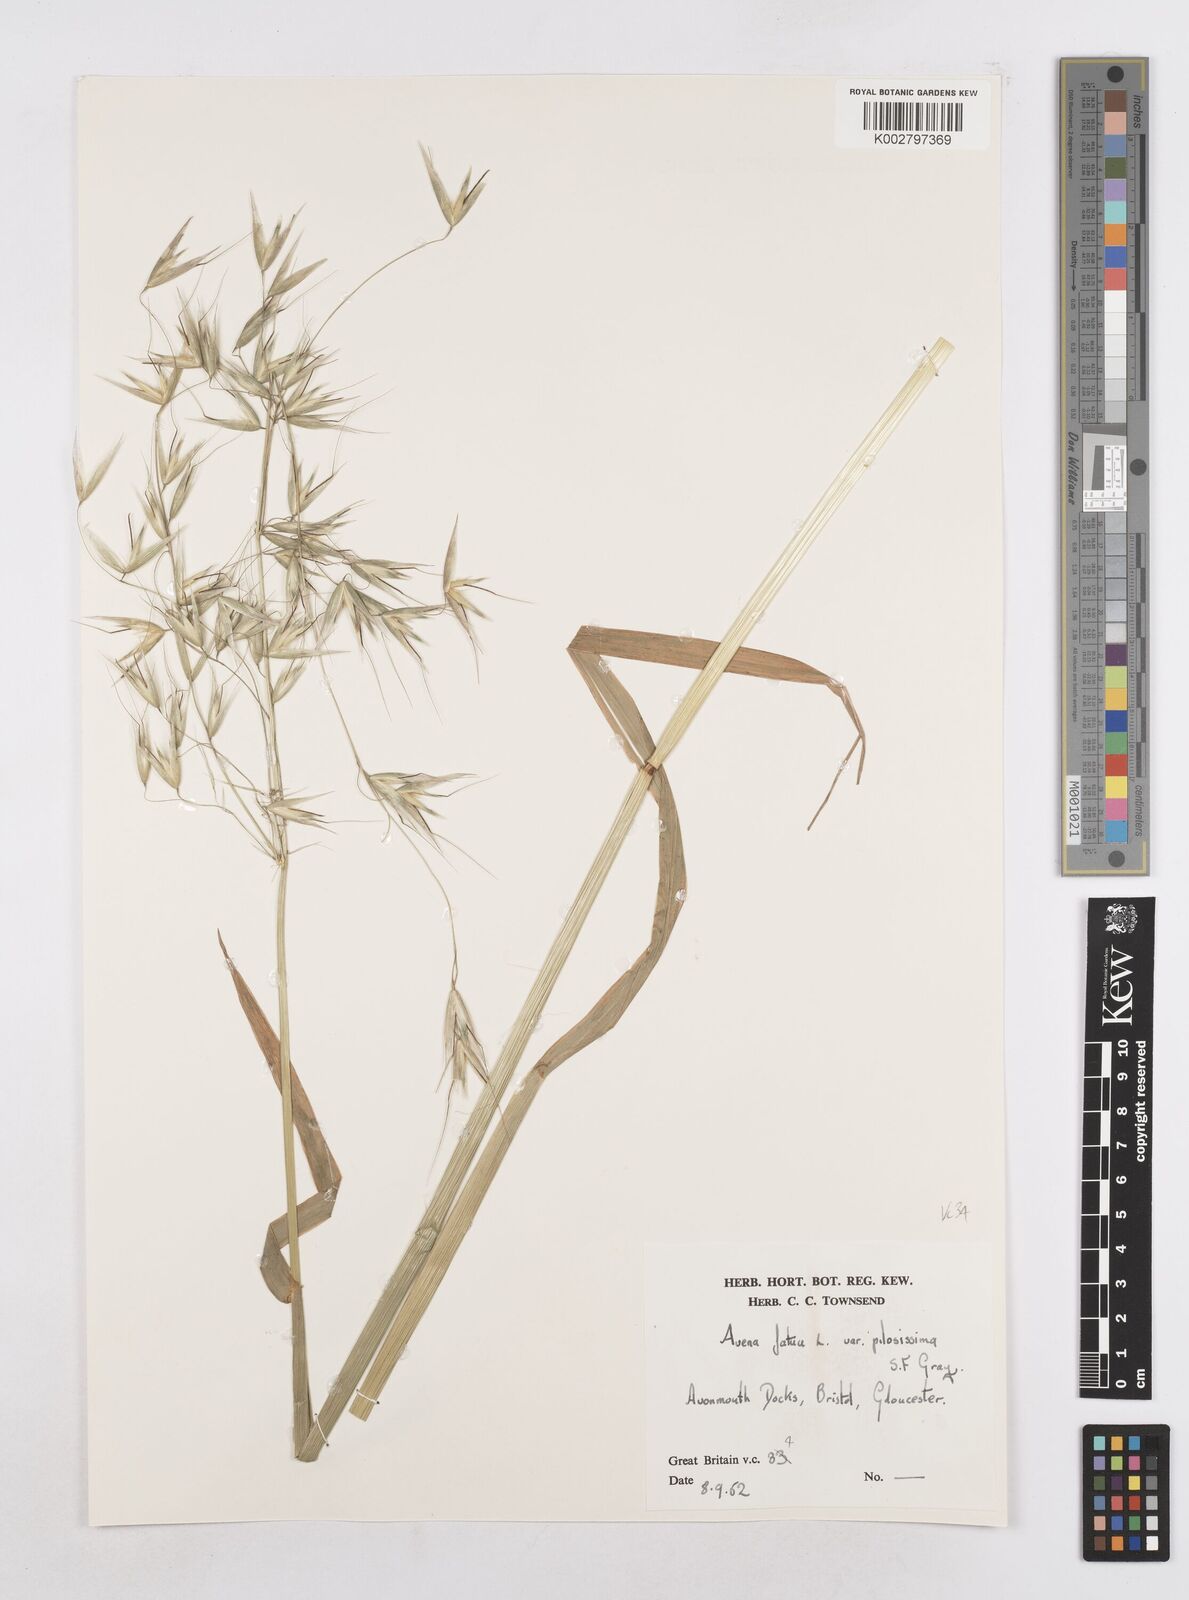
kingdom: Plantae
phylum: Tracheophyta
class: Liliopsida
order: Poales
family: Poaceae
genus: Avena
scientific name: Avena fatua
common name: Wild oat
